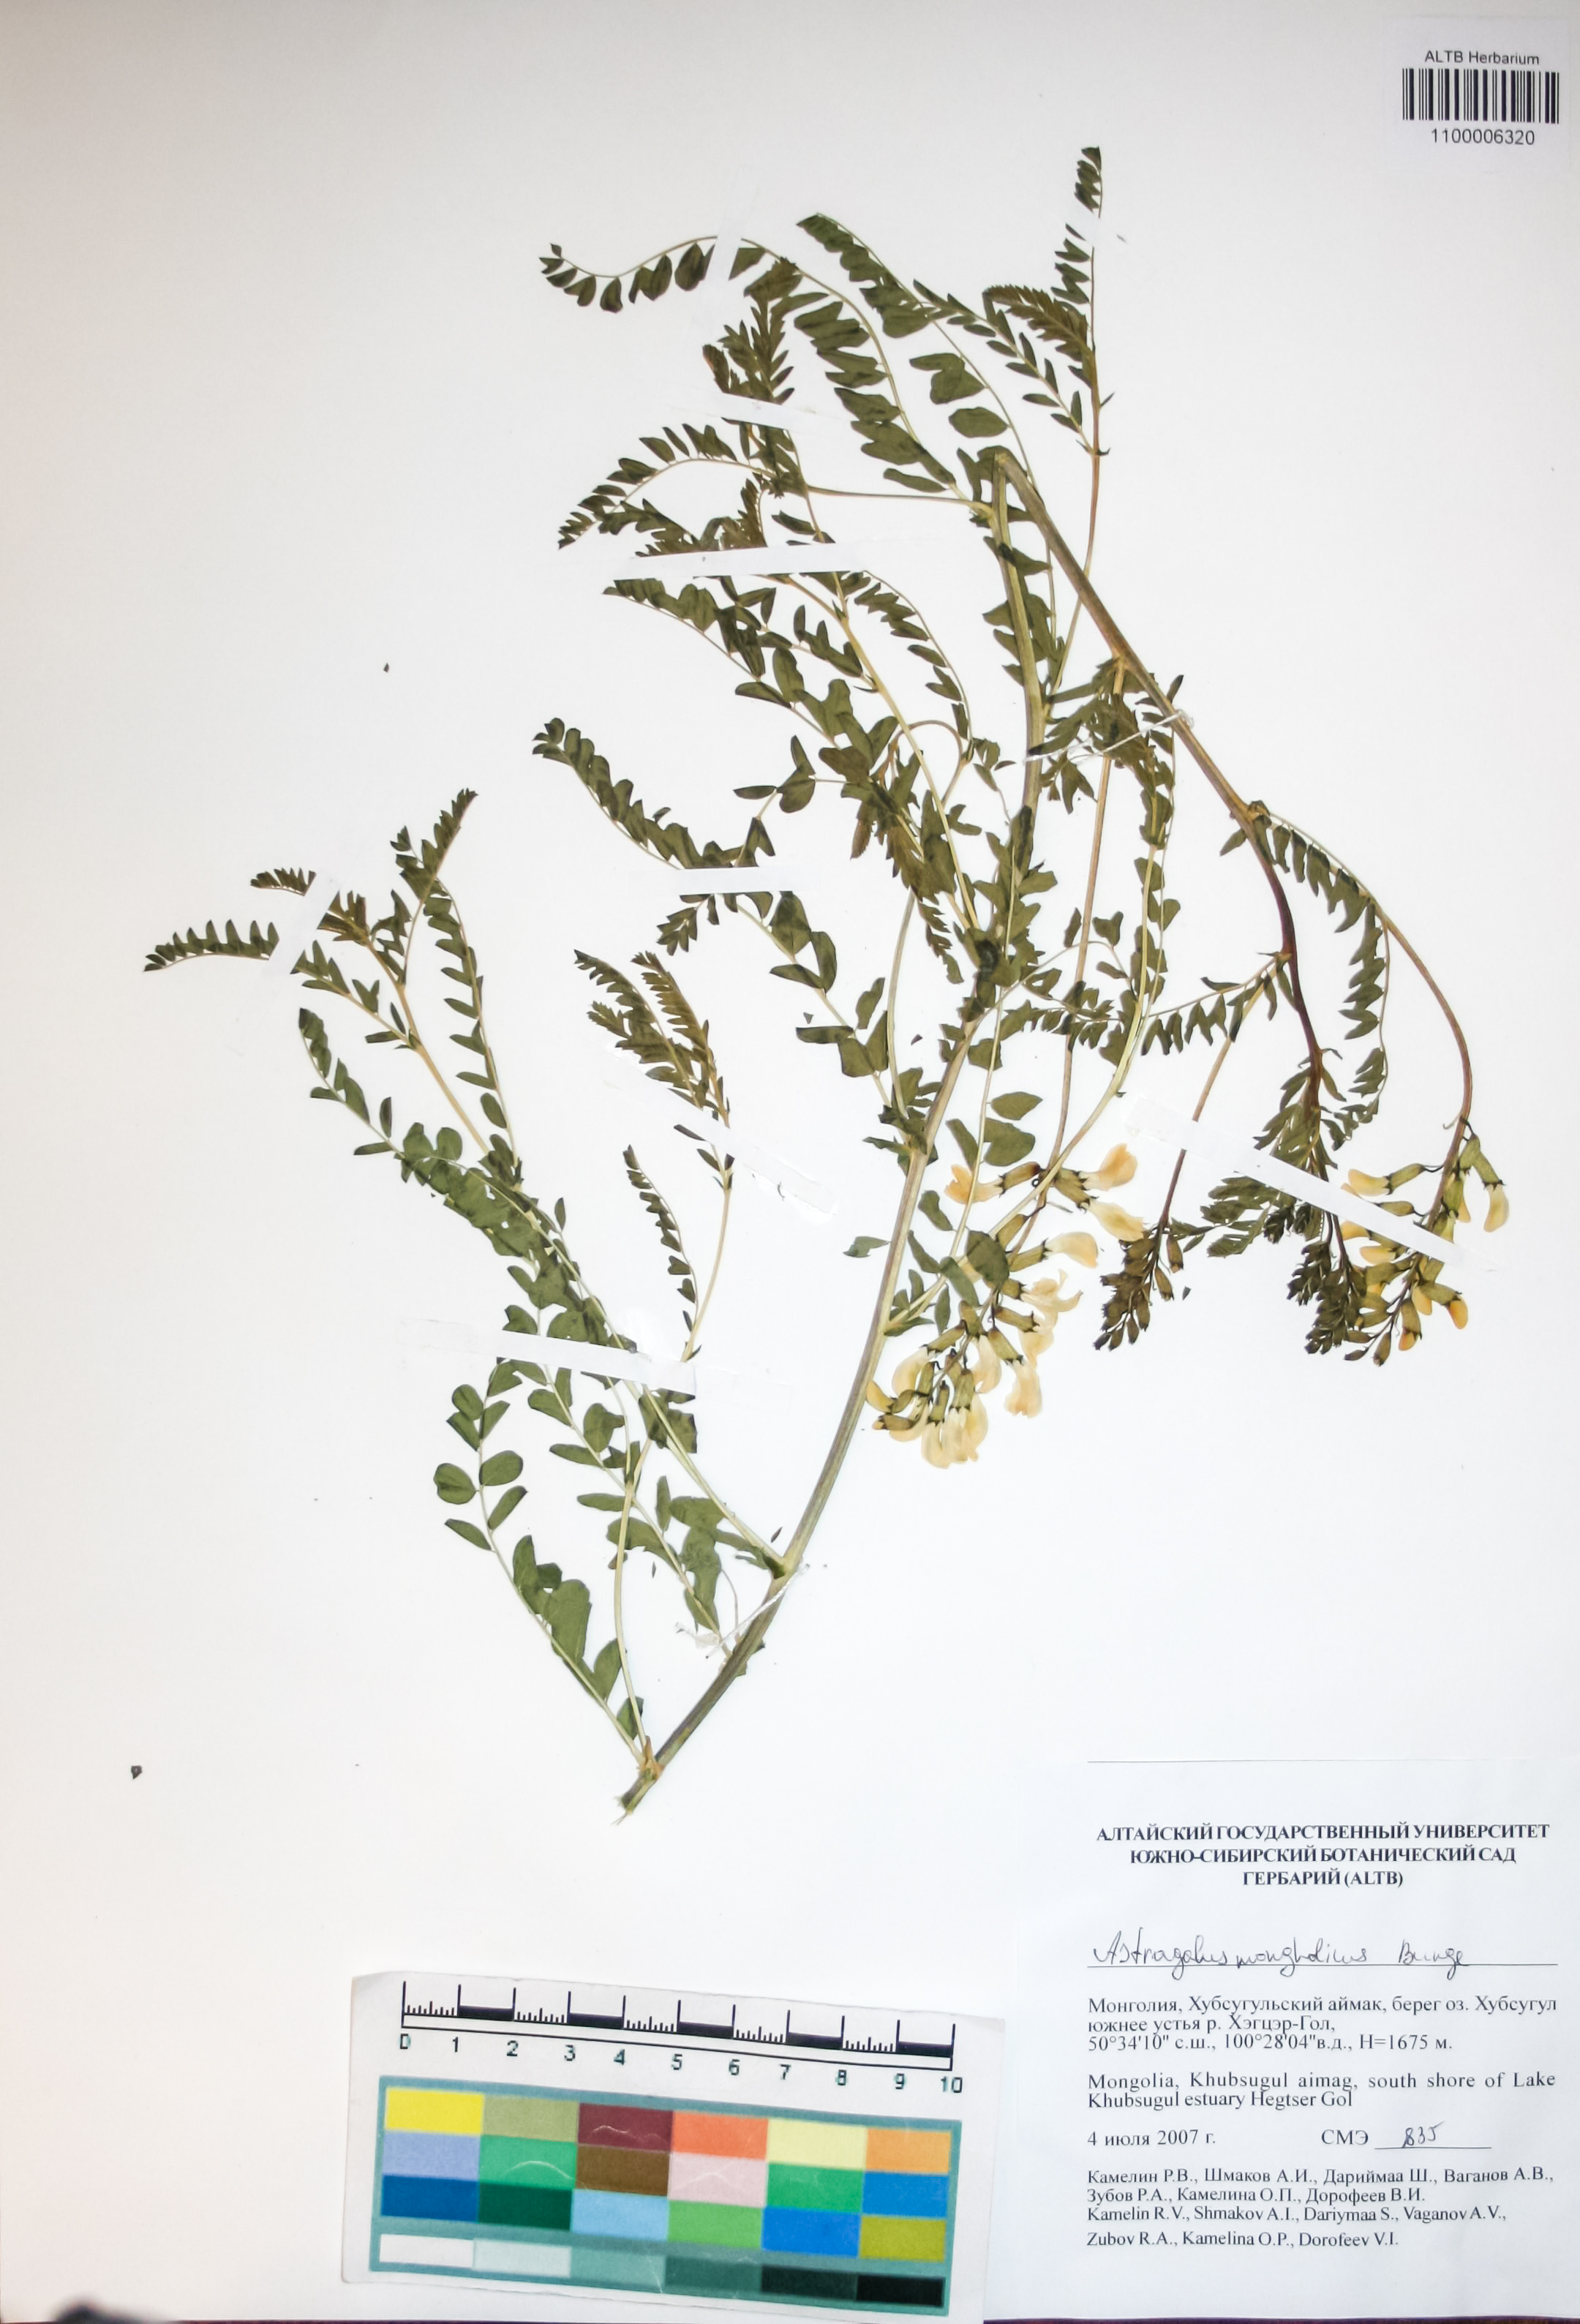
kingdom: Plantae
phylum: Tracheophyta
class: Magnoliopsida
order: Fabales
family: Fabaceae
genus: Astragalus
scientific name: Astragalus mongolicus
